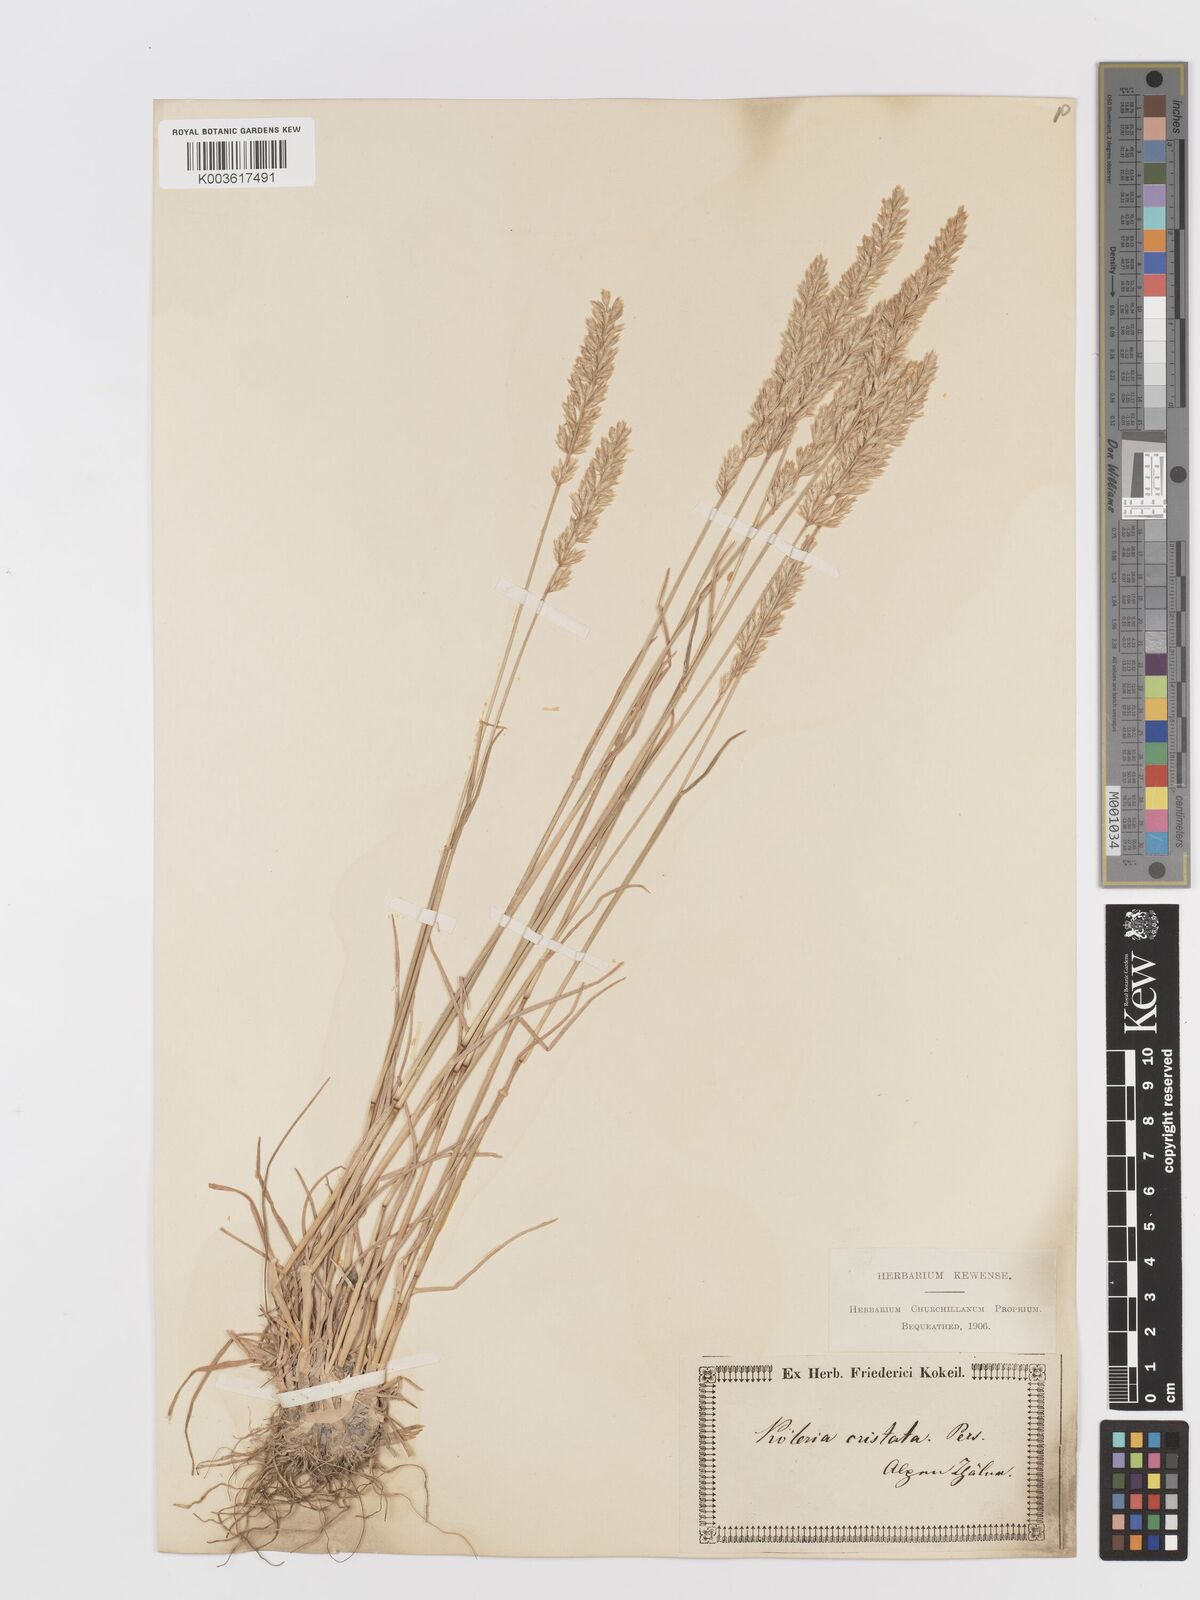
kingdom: Plantae
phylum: Tracheophyta
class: Liliopsida
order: Poales
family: Poaceae
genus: Koeleria
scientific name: Koeleria
